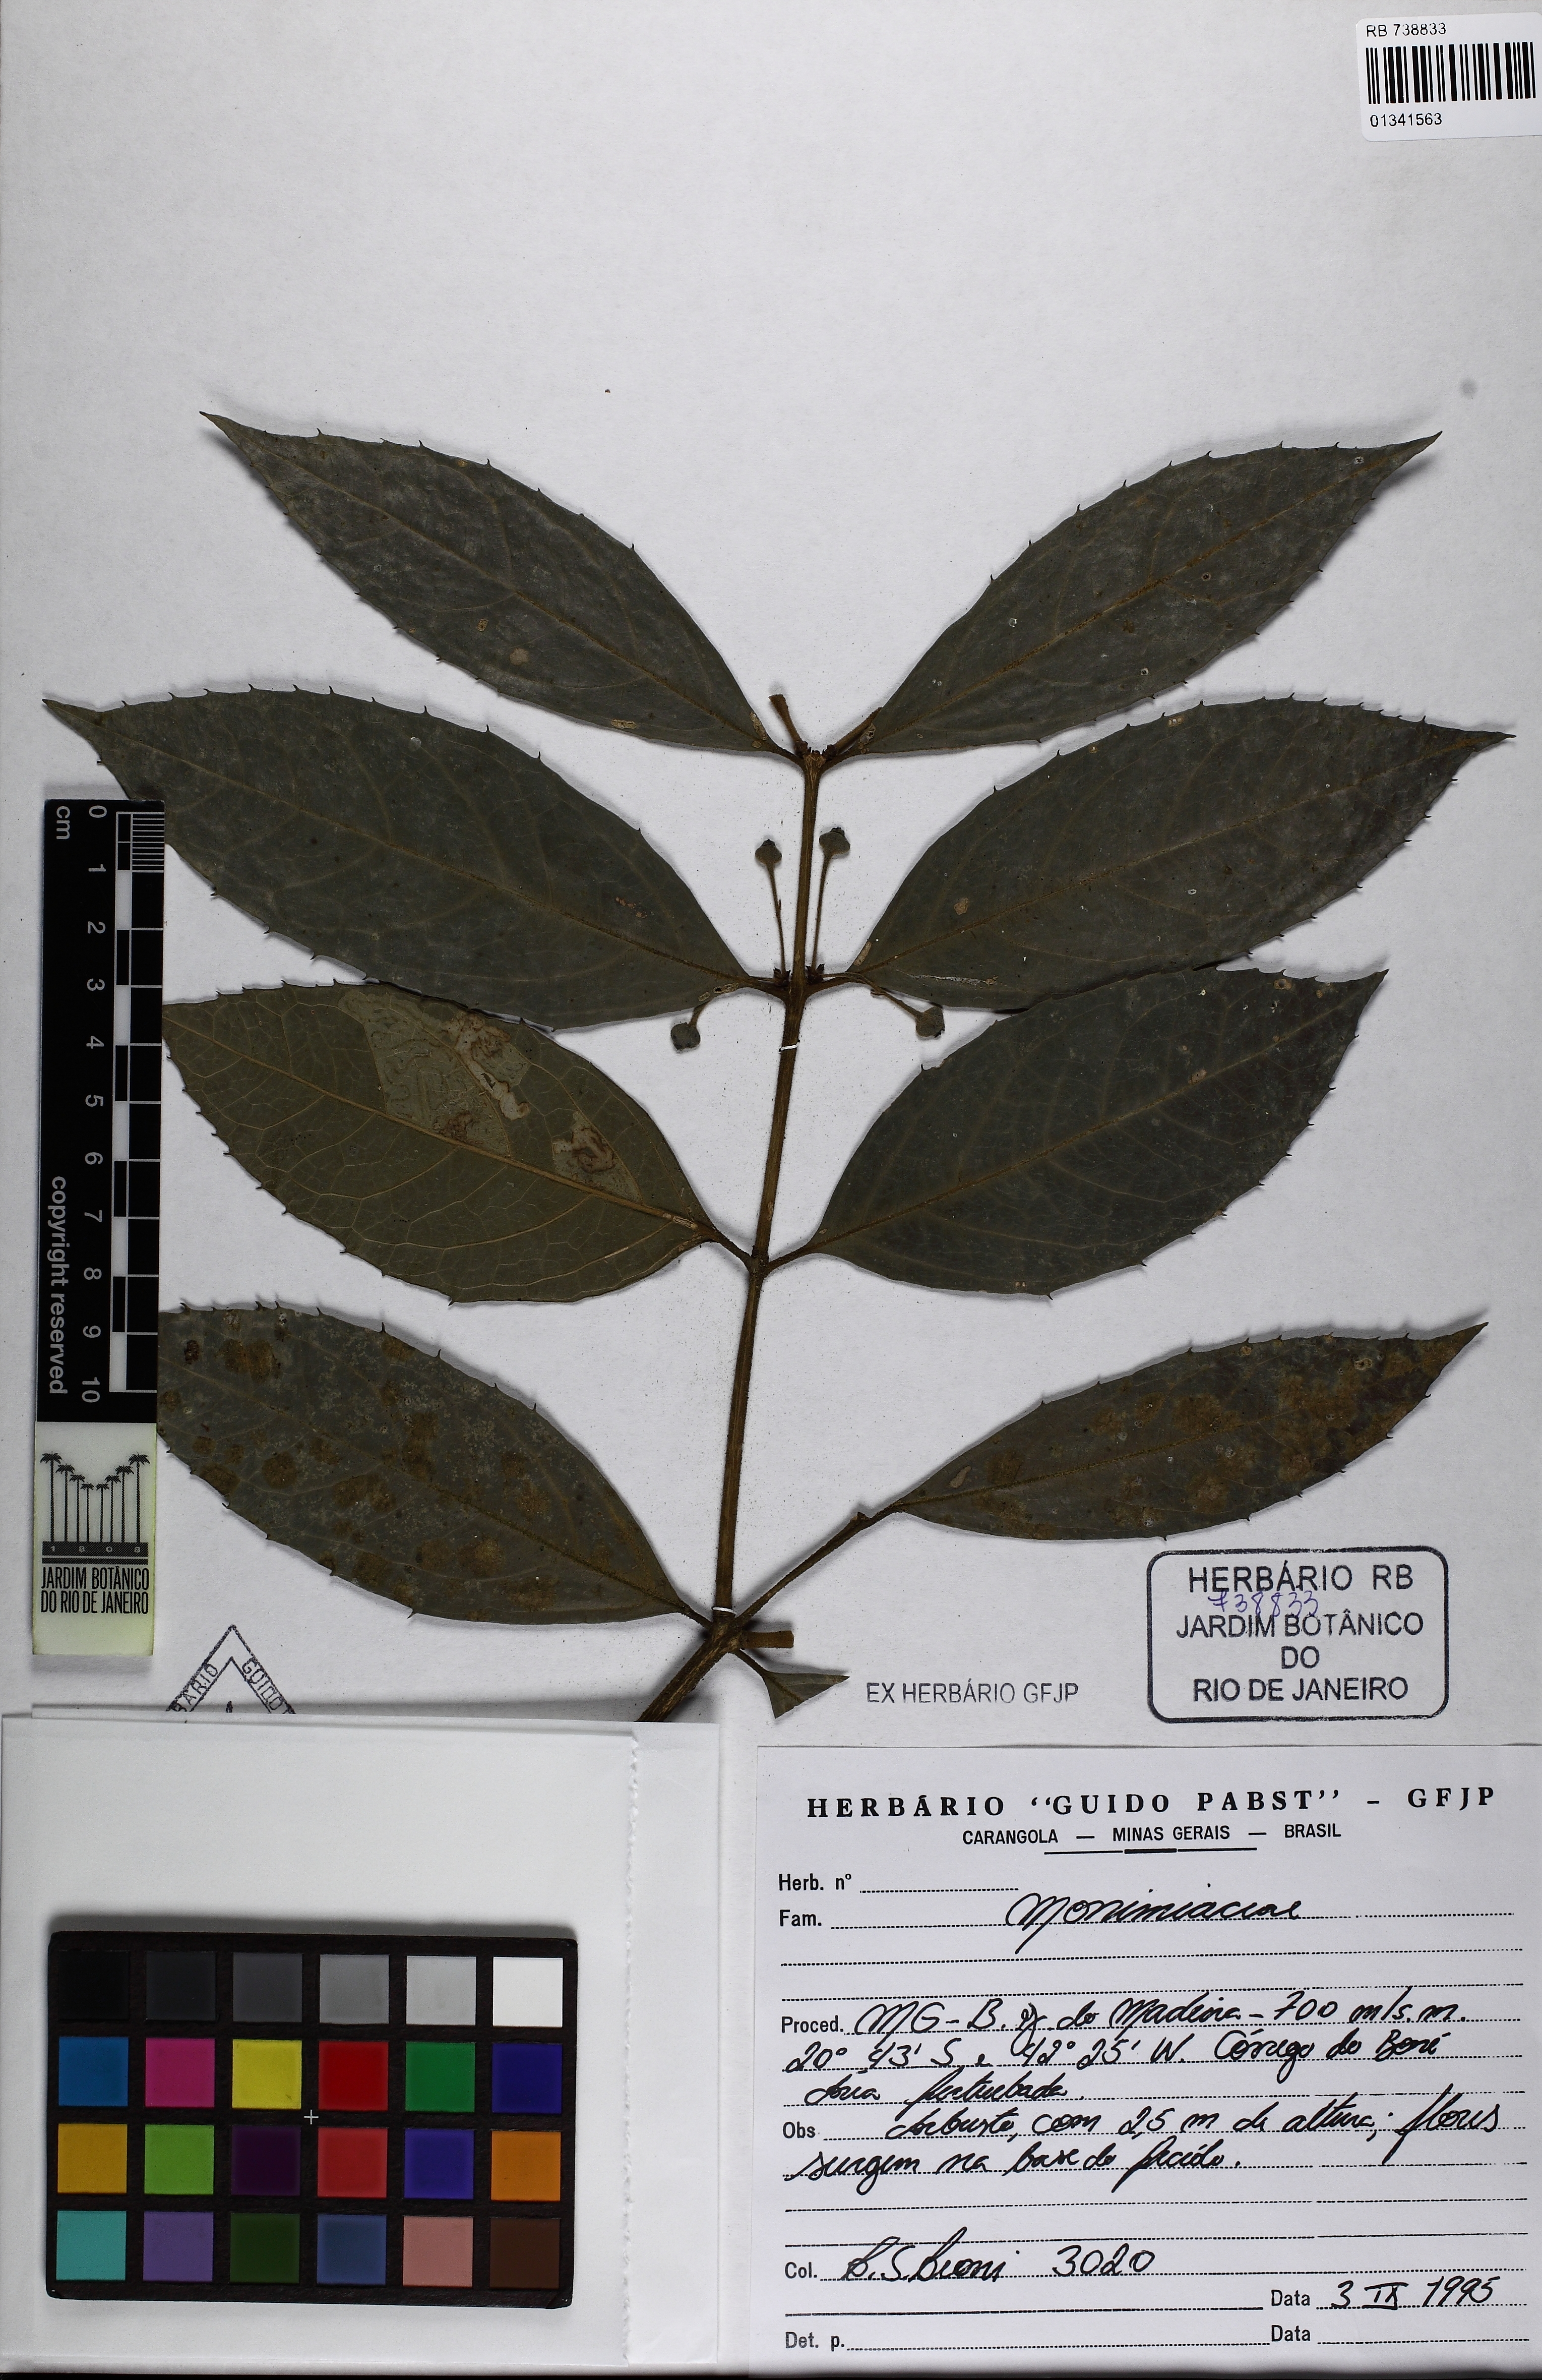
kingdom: Plantae
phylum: Tracheophyta
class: Magnoliopsida
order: Laurales
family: Monimiaceae
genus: Mollinedia
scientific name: Mollinedia umbellata
